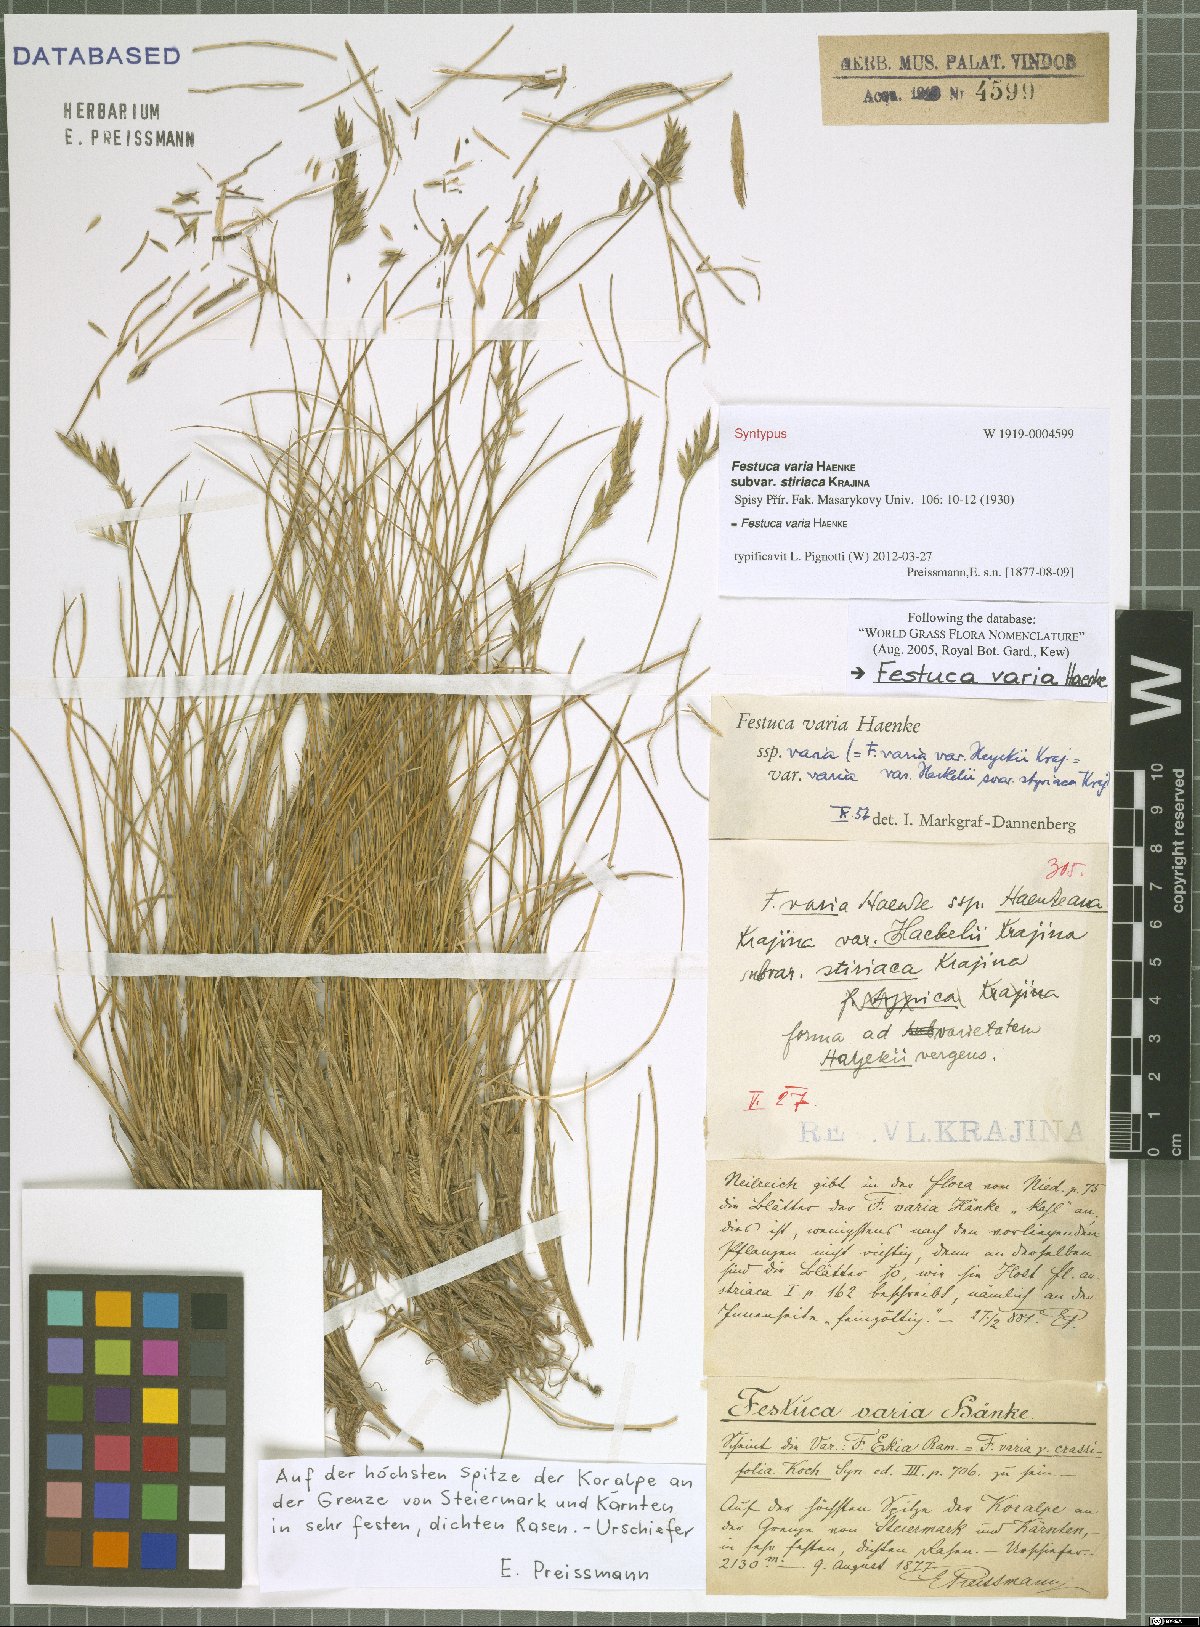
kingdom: Plantae
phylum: Tracheophyta
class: Liliopsida
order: Poales
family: Poaceae
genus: Festuca
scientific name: Festuca varia
